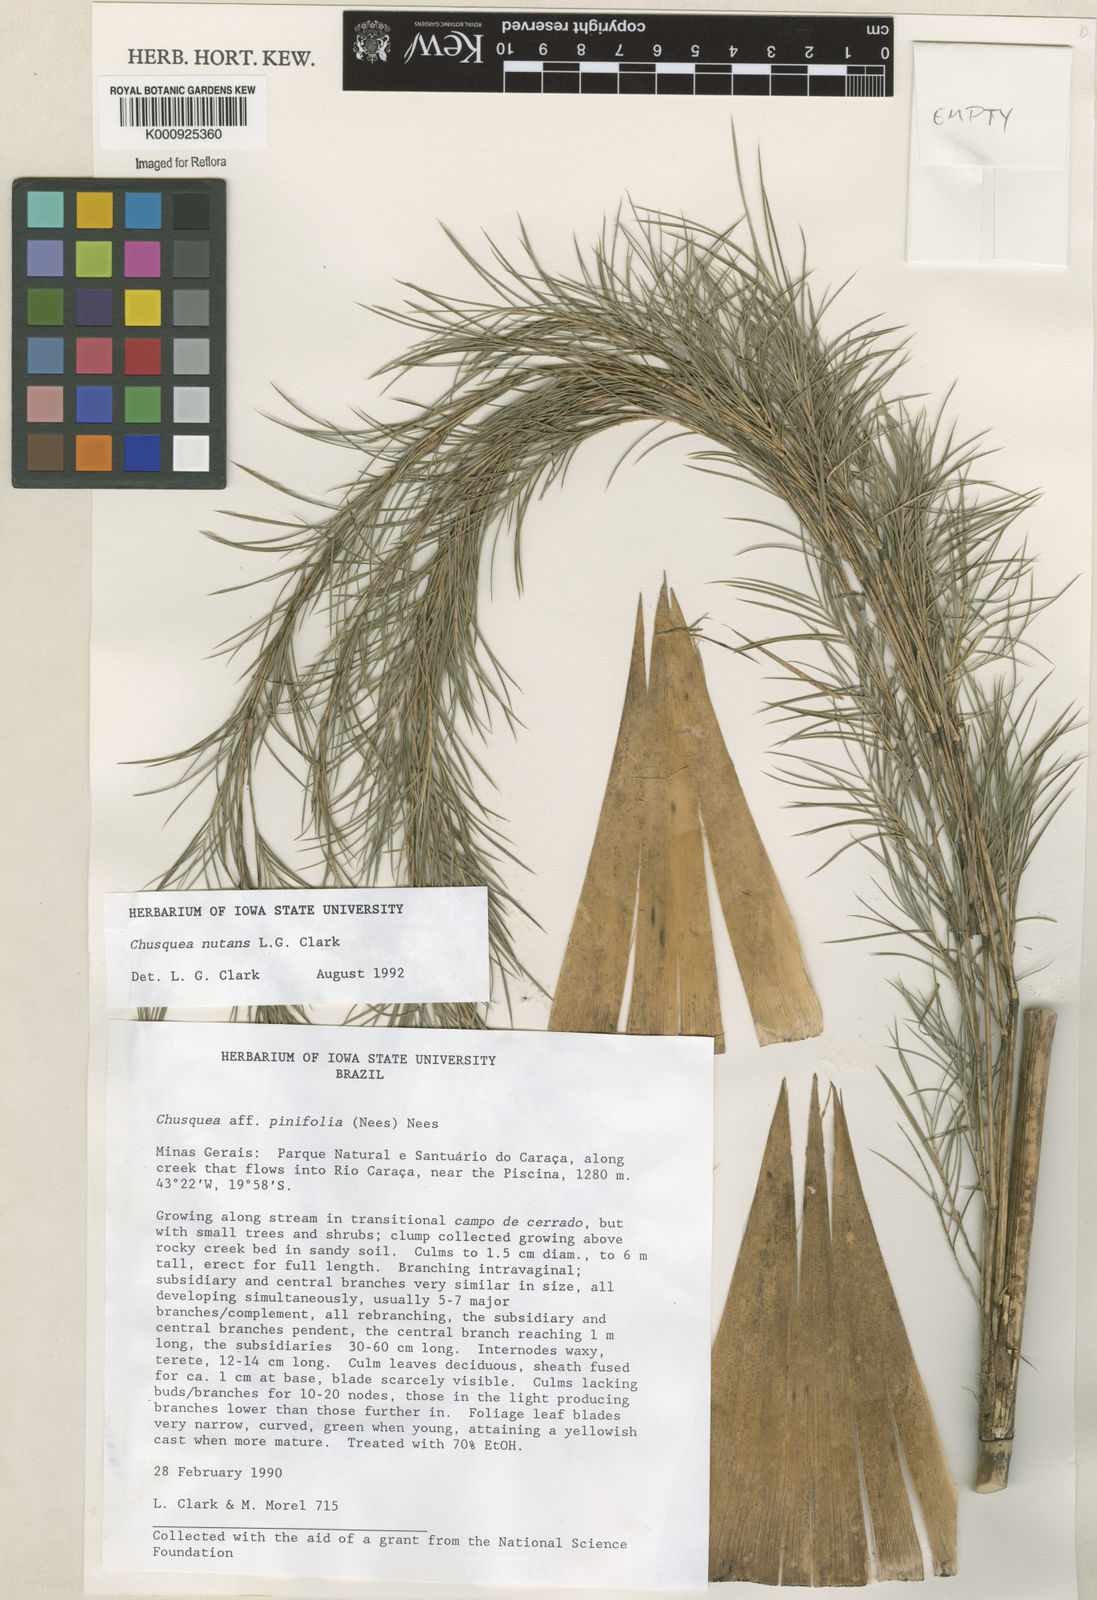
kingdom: Plantae
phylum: Tracheophyta
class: Liliopsida
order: Poales
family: Poaceae
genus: Chusquea
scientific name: Chusquea nutans
